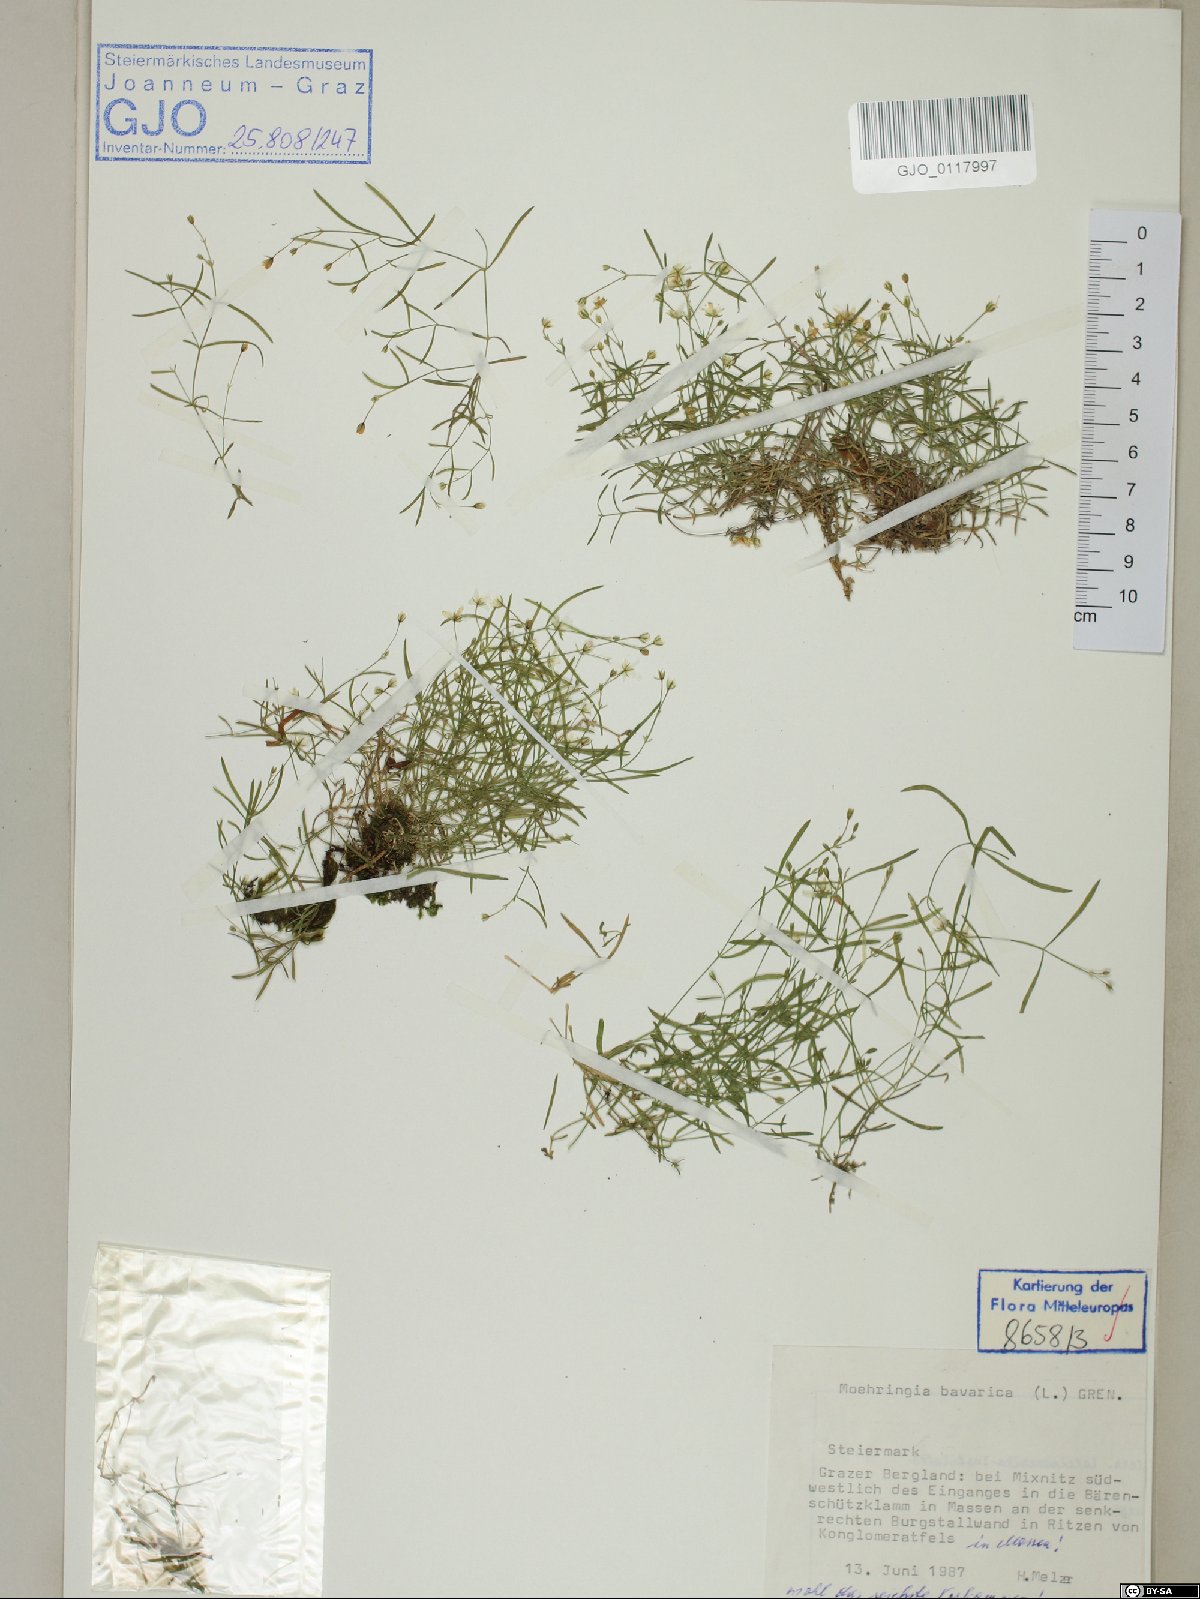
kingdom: Plantae
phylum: Tracheophyta
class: Magnoliopsida
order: Caryophyllales
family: Caryophyllaceae
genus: Moehringia
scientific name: Moehringia bavarica
